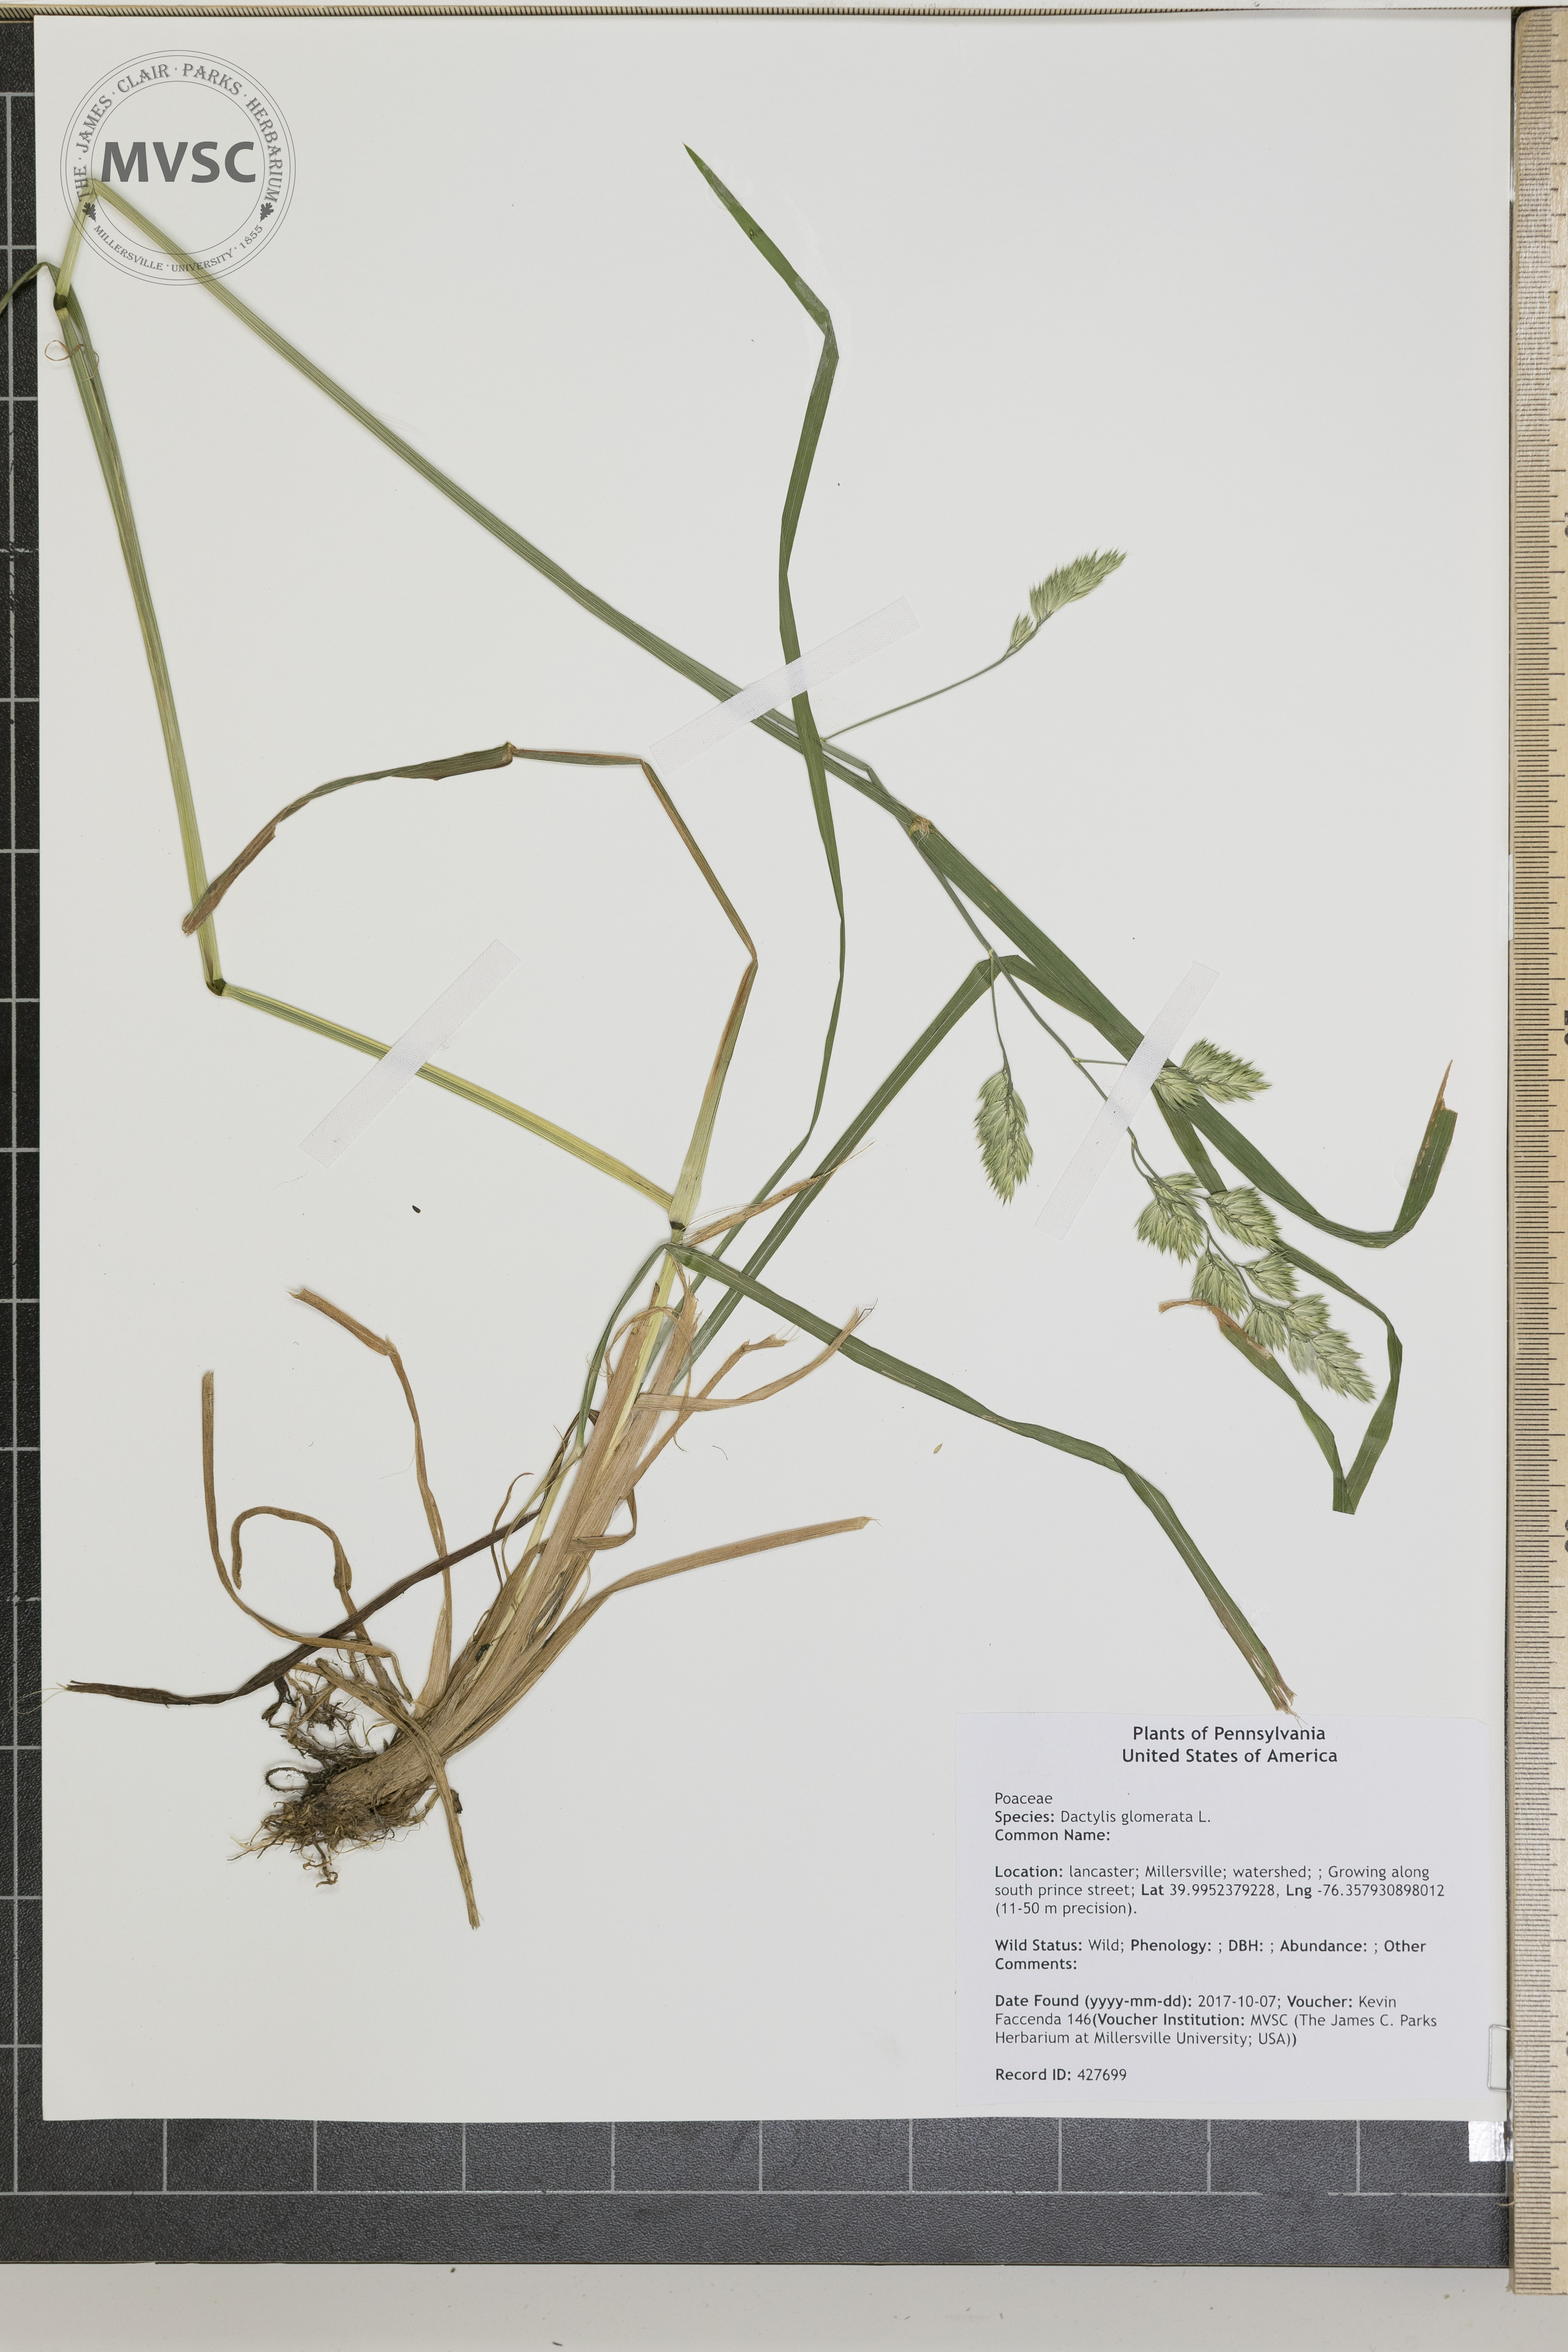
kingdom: Plantae
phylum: Tracheophyta
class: Liliopsida
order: Poales
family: Poaceae
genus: Dactylis
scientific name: Dactylis glomerata
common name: Orchardgrass
